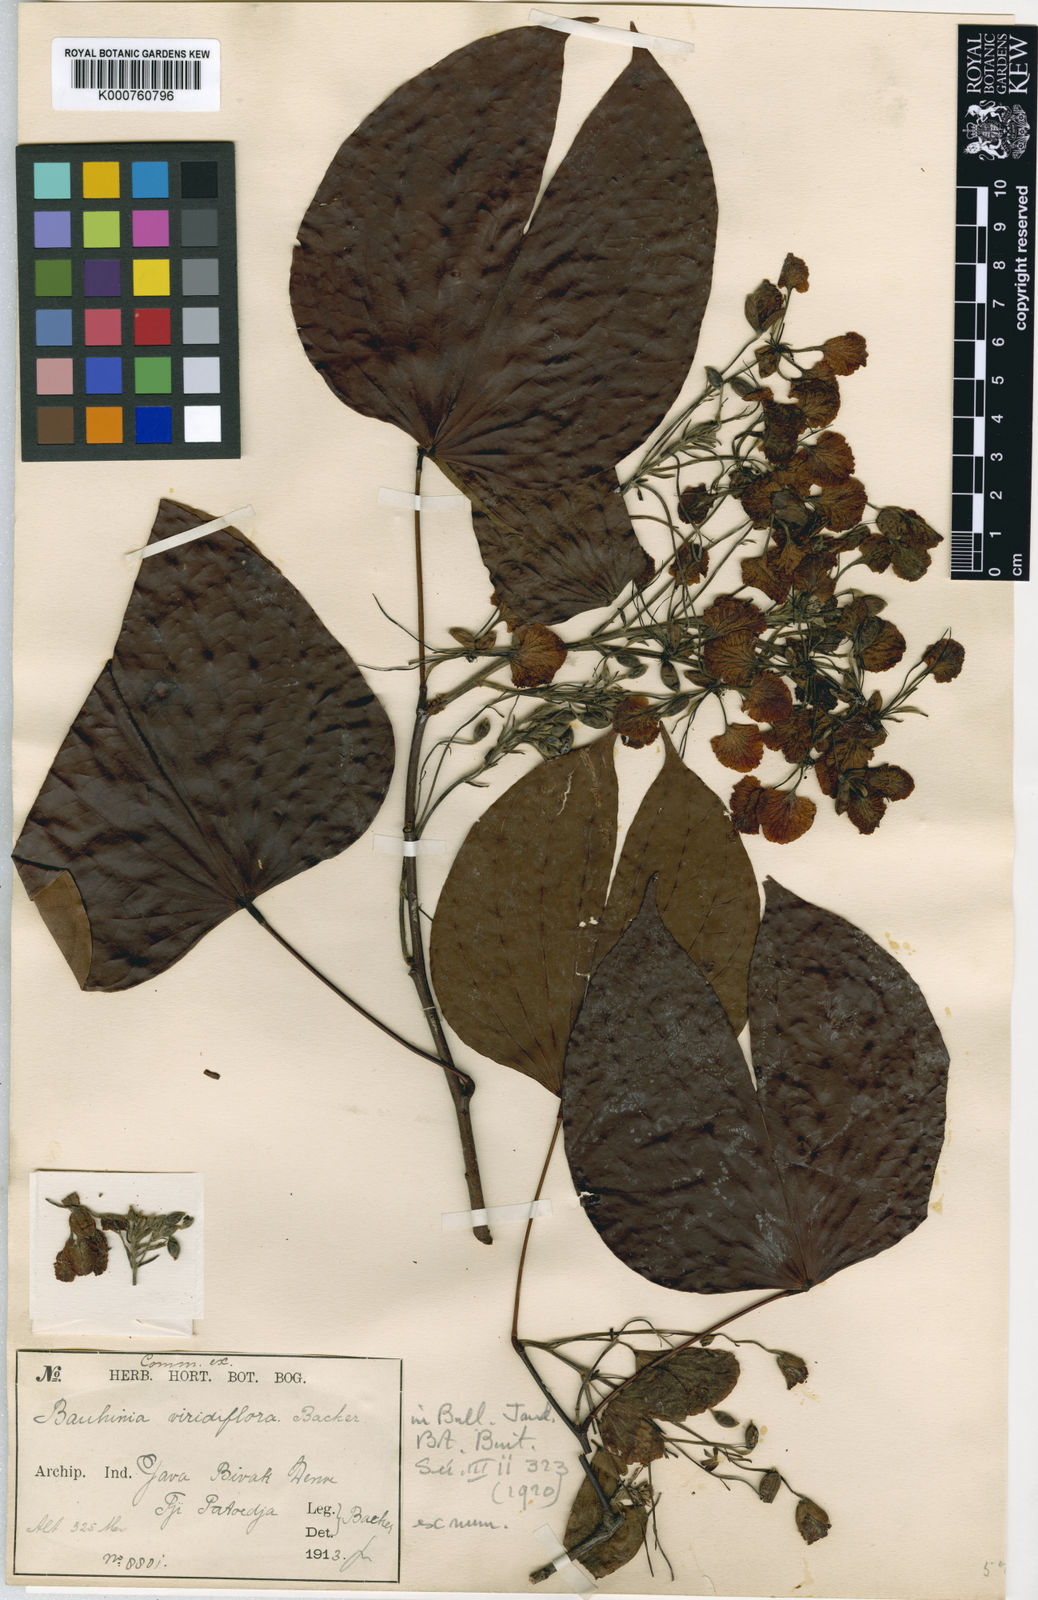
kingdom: Plantae
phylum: Tracheophyta
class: Magnoliopsida
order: Fabales
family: Fabaceae
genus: Phanera
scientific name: Phanera bassacensis
